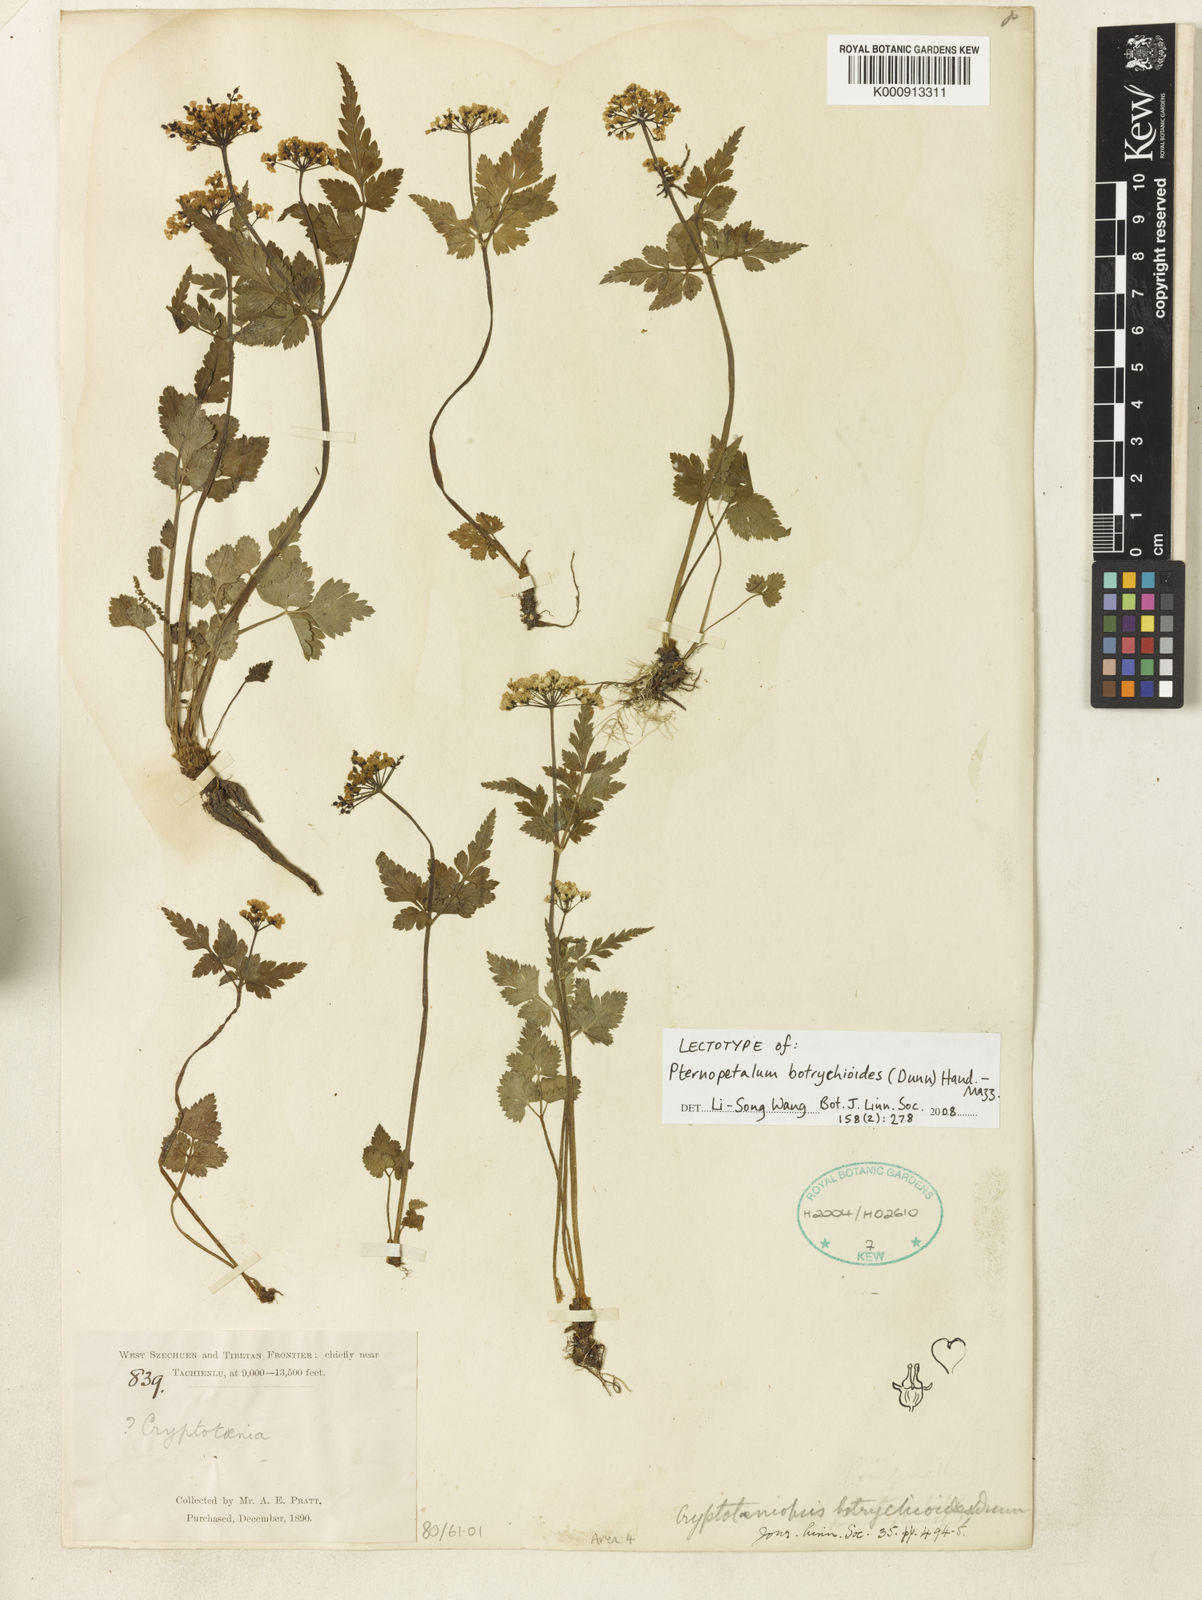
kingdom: Plantae
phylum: Tracheophyta
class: Magnoliopsida
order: Apiales
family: Apiaceae
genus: Pternopetalum
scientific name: Pternopetalum botrychioides
